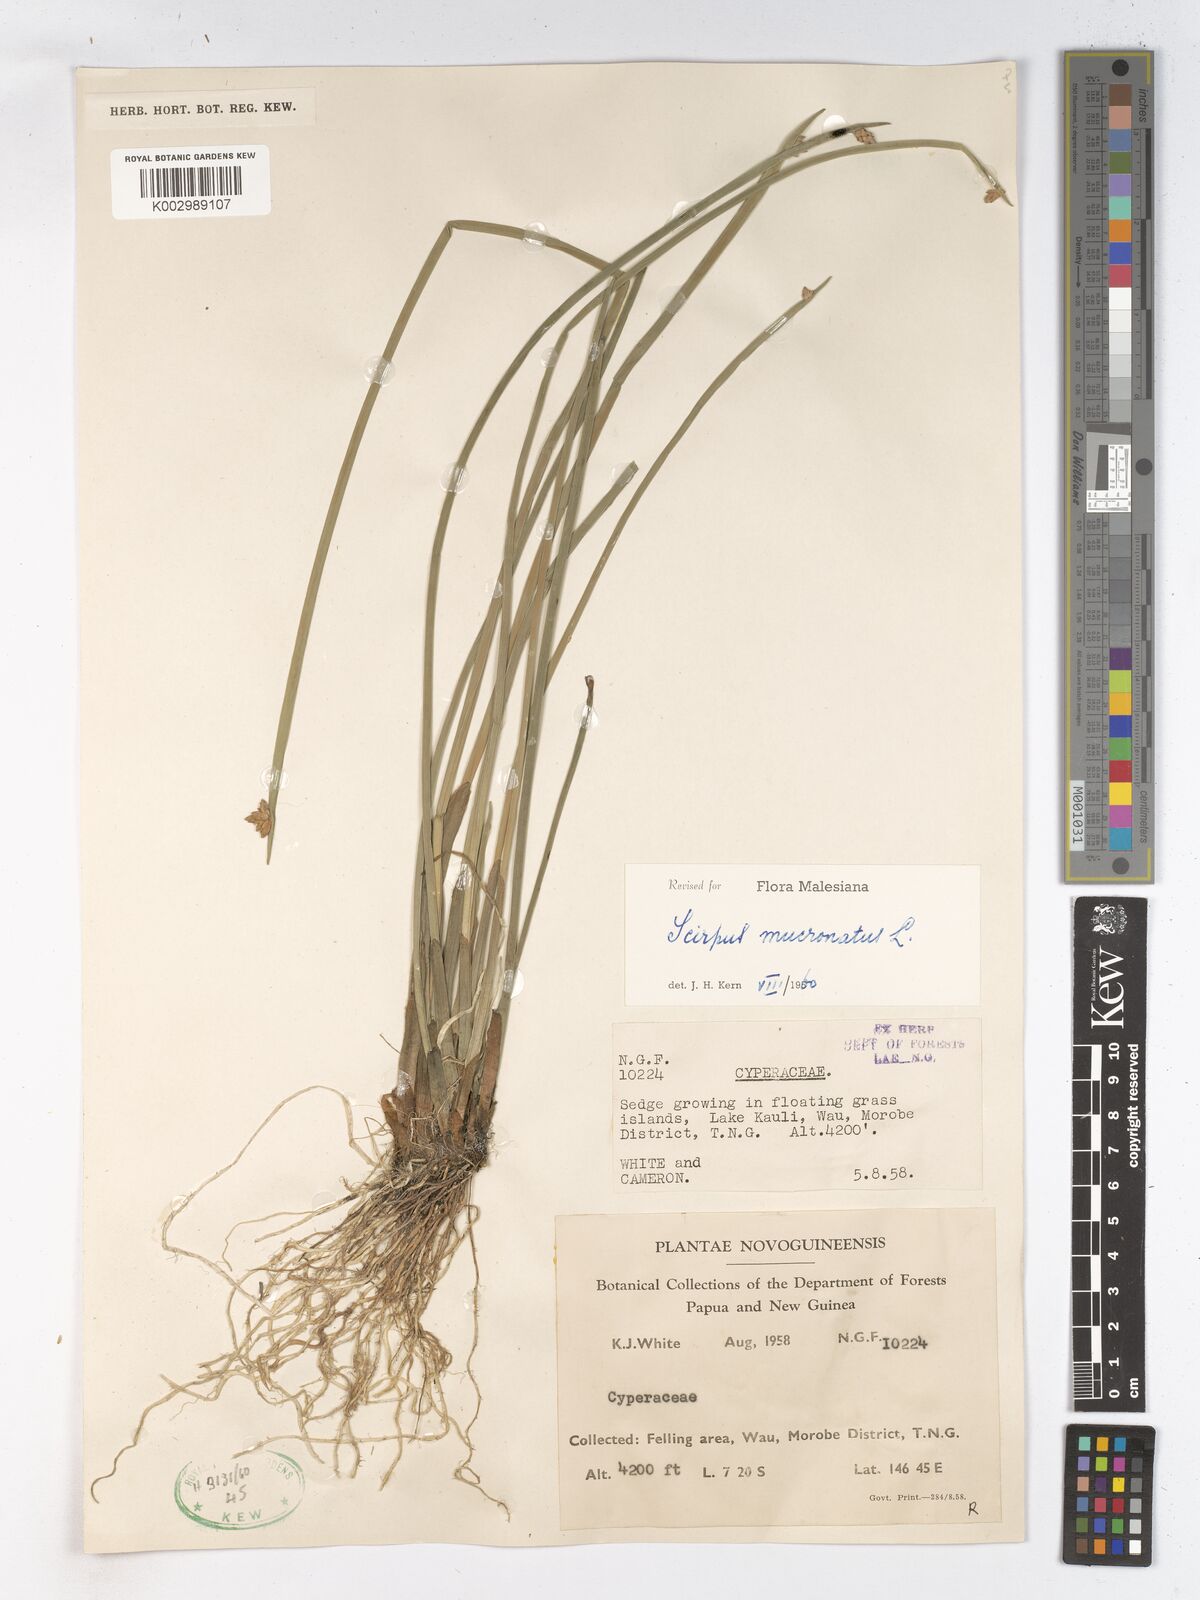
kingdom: Plantae
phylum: Tracheophyta
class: Liliopsida
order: Poales
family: Cyperaceae
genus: Schoenoplectiella
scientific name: Schoenoplectiella mucronata
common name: Bog bulrush
